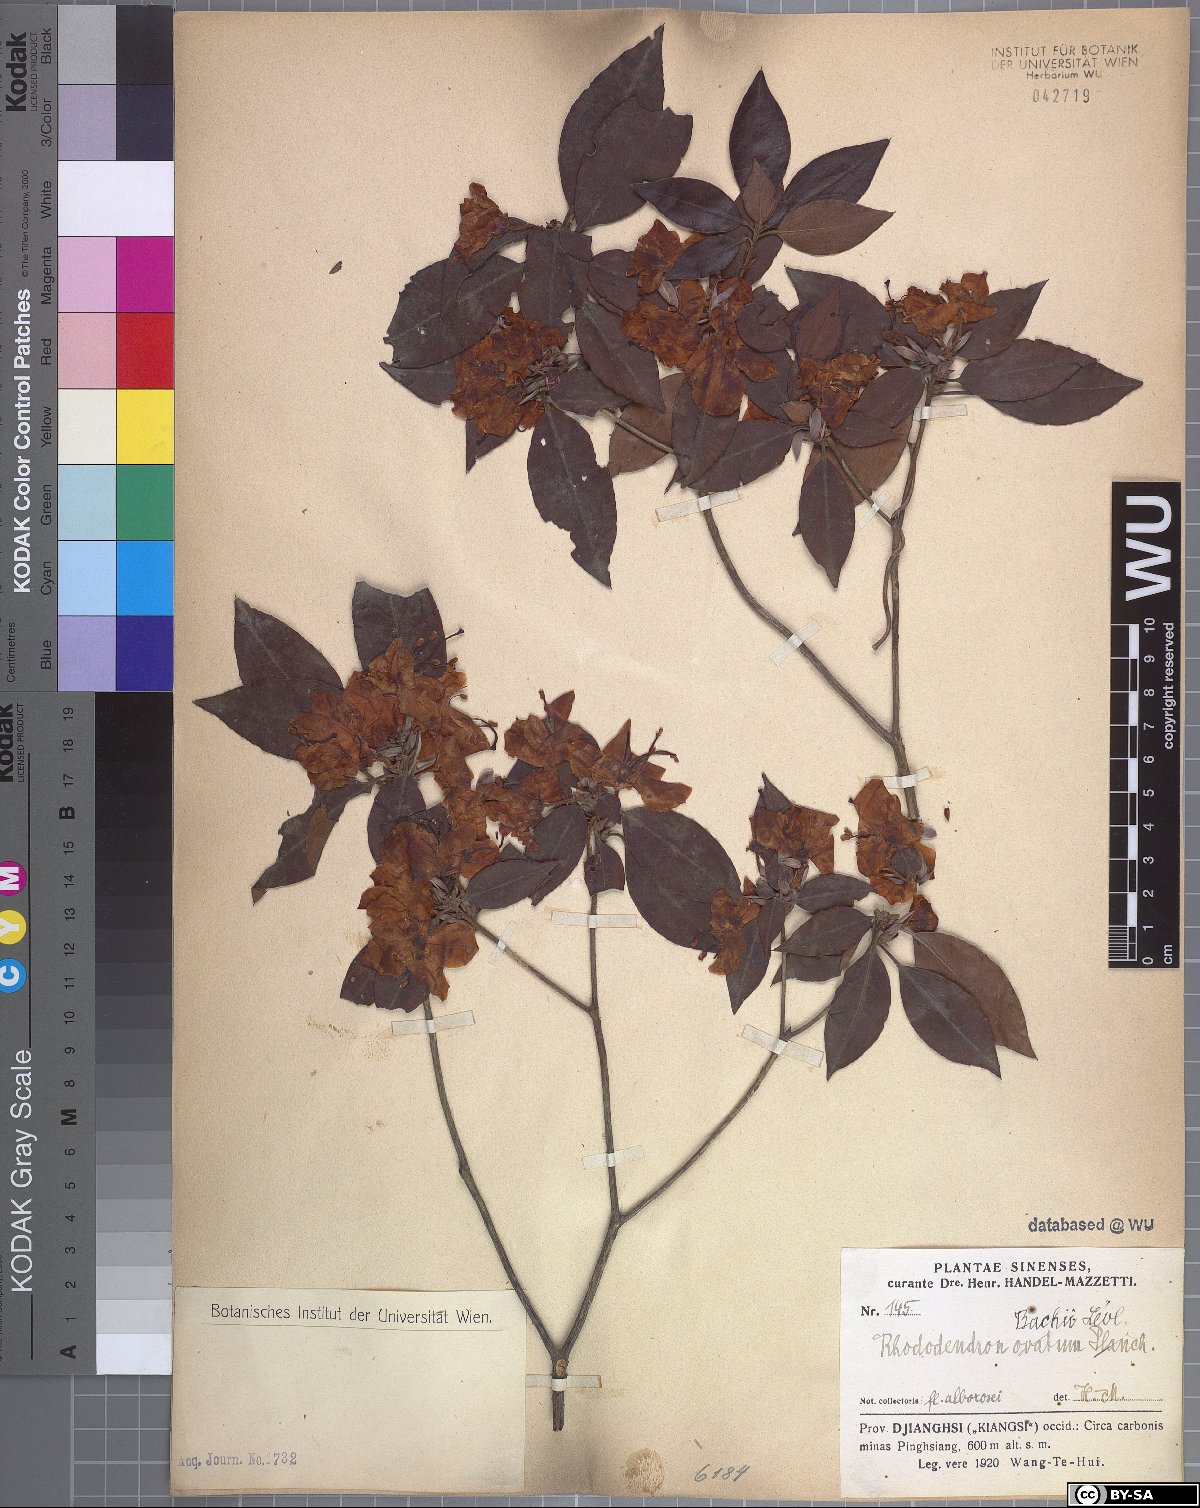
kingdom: Plantae
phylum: Tracheophyta
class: Magnoliopsida
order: Ericales
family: Ericaceae
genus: Rhododendron
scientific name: Rhododendron bachii
